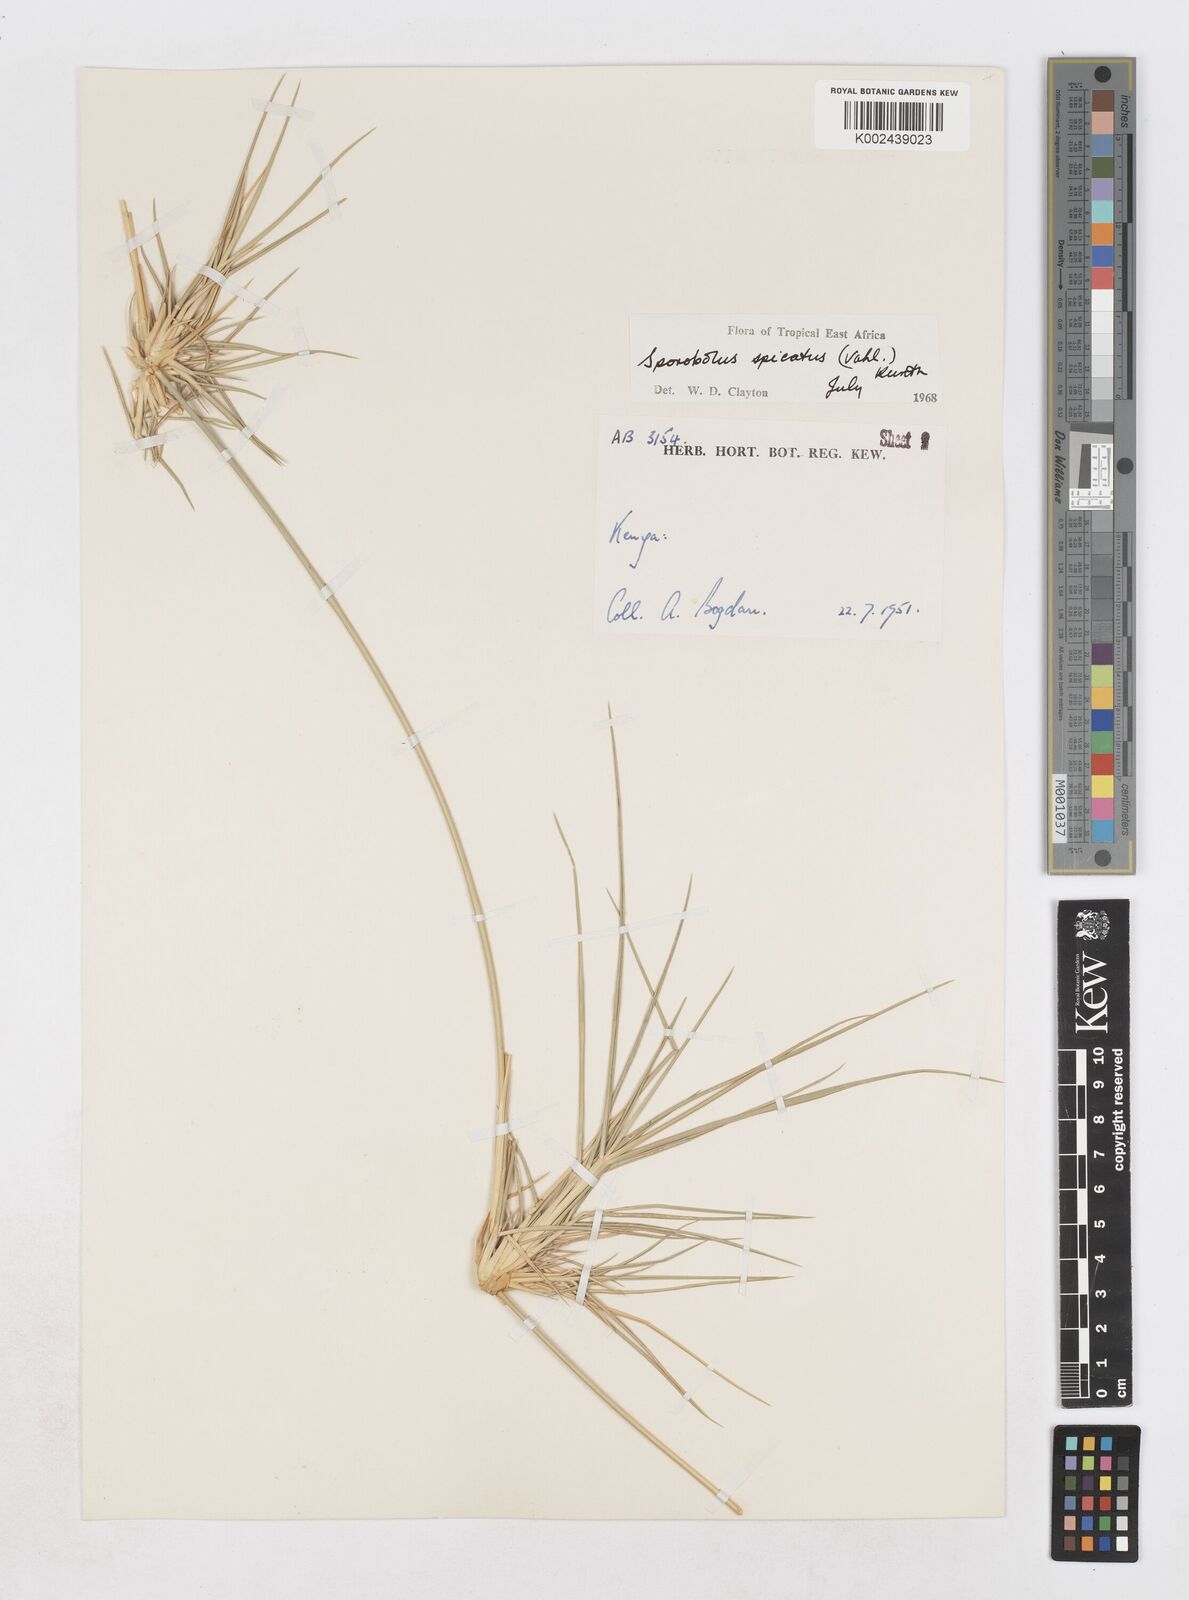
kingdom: Plantae
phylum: Tracheophyta
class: Liliopsida
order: Poales
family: Poaceae
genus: Sporobolus
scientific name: Sporobolus spicatus
